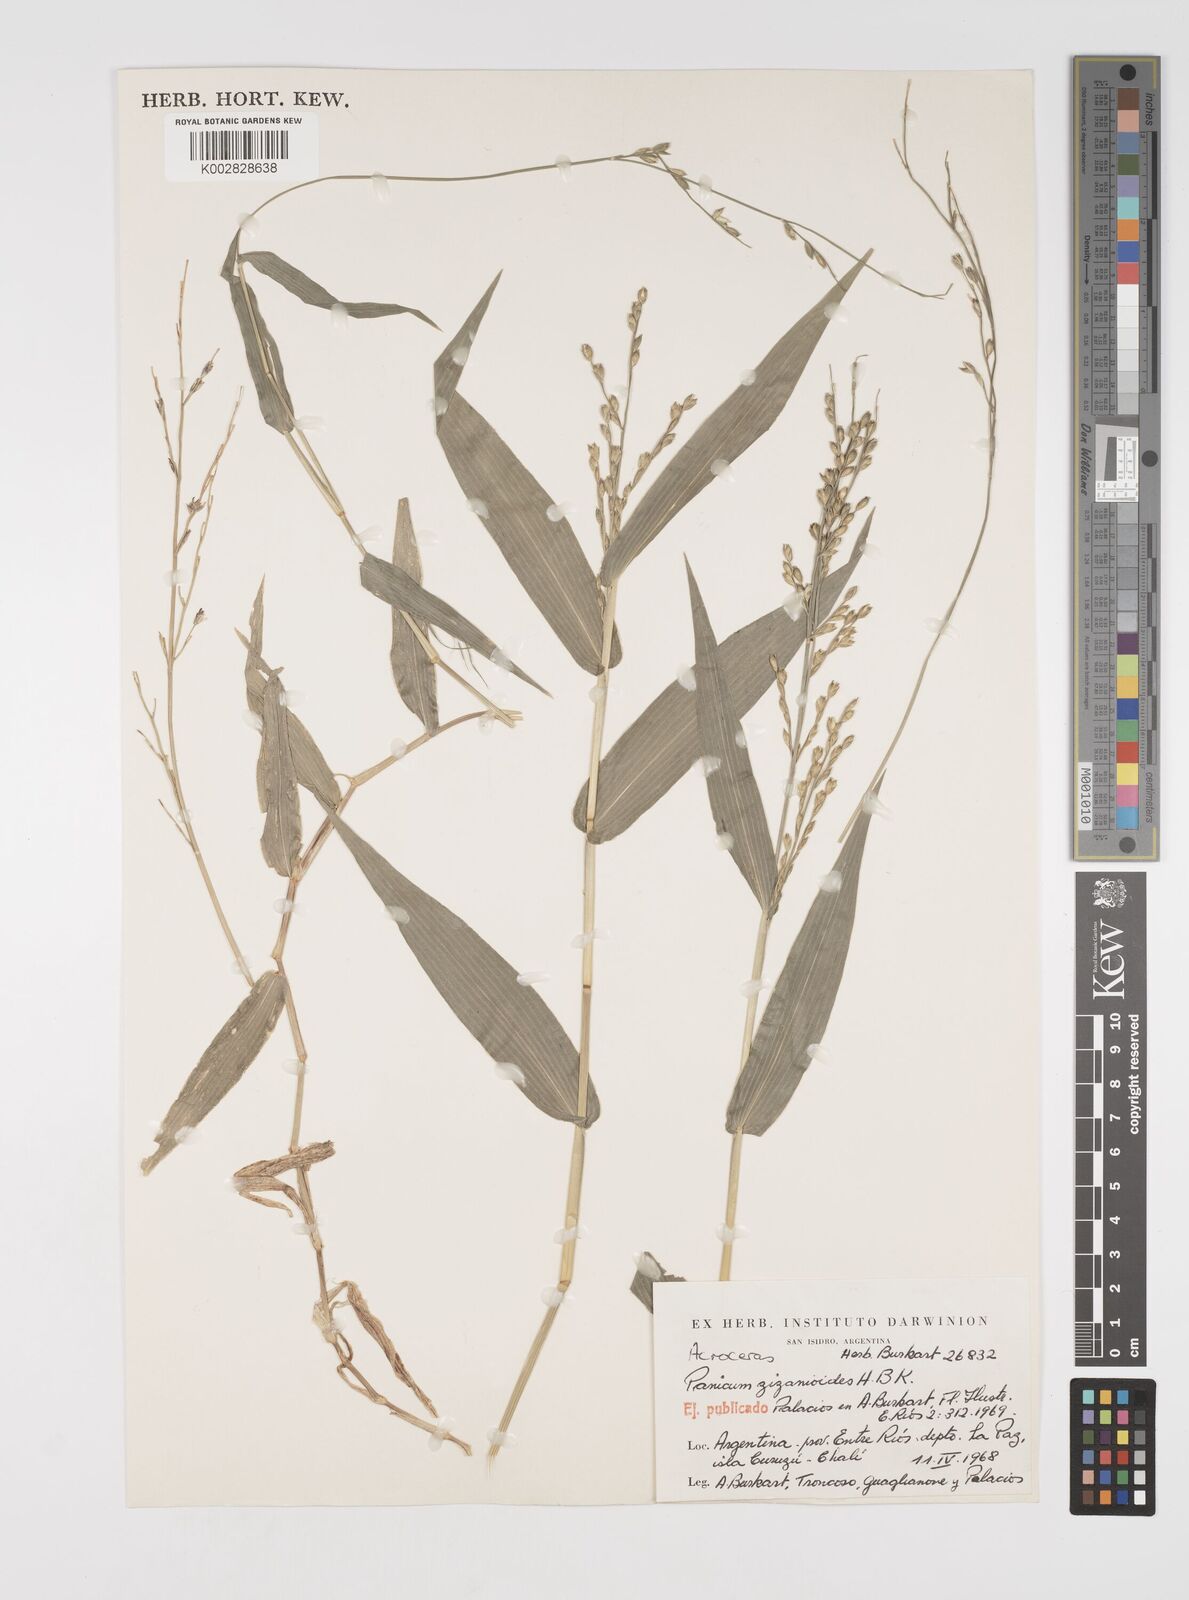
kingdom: Plantae
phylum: Tracheophyta
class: Liliopsida
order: Poales
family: Poaceae
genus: Acroceras
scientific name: Acroceras zizanioides
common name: Oat grass
